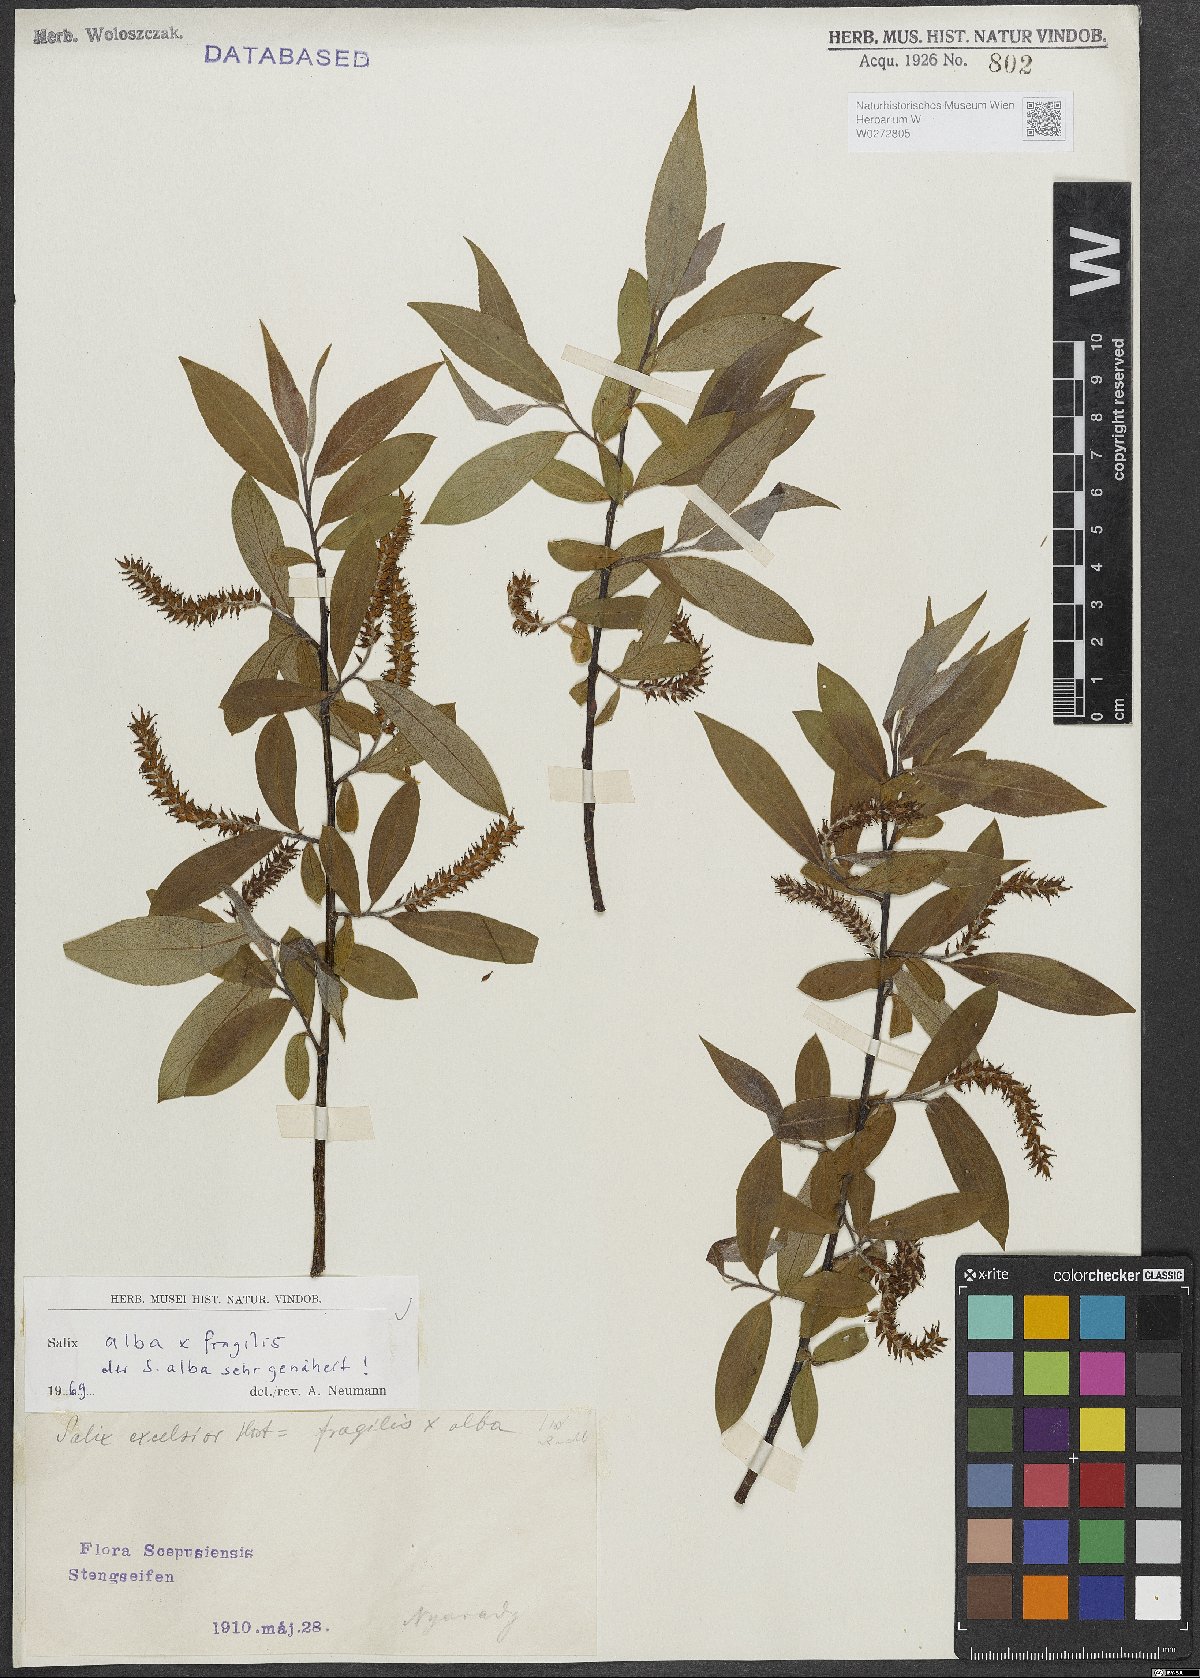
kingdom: Plantae
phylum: Tracheophyta
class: Magnoliopsida
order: Malpighiales
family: Salicaceae
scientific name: Salicaceae
